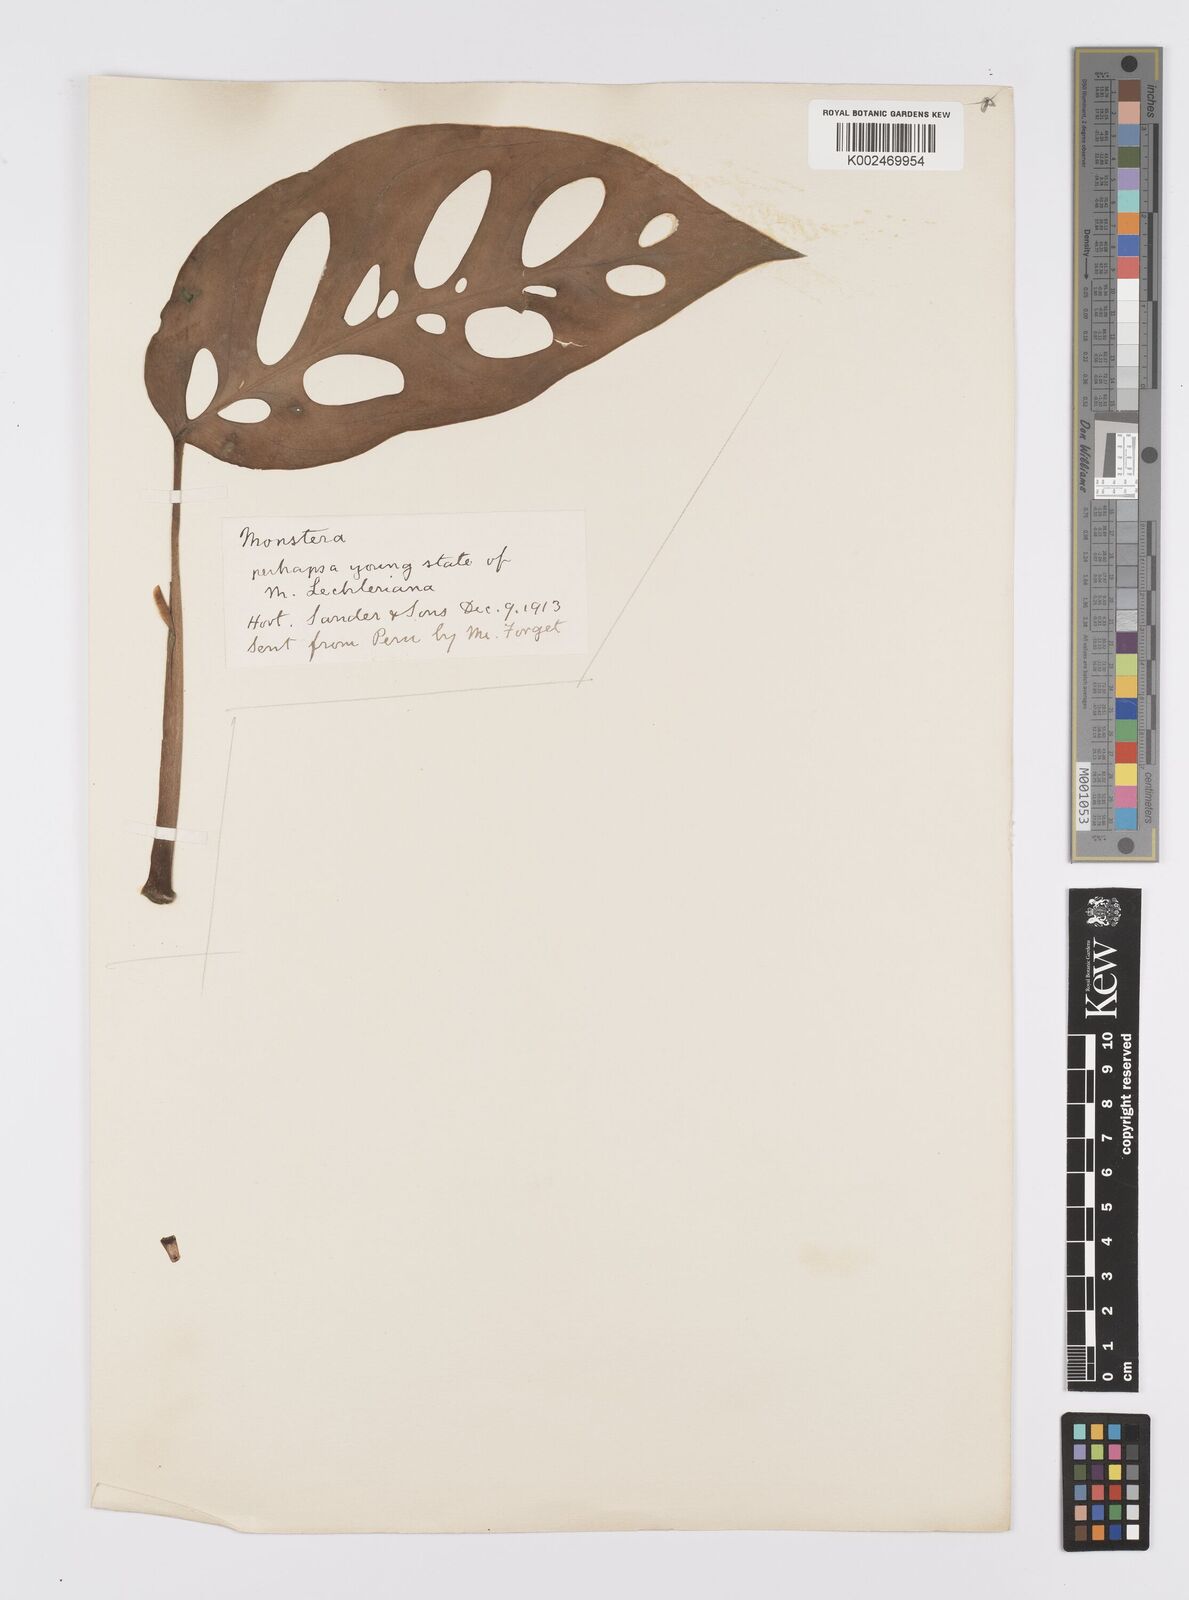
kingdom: Plantae
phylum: Tracheophyta
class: Liliopsida
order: Alismatales
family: Araceae
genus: Monstera
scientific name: Monstera
